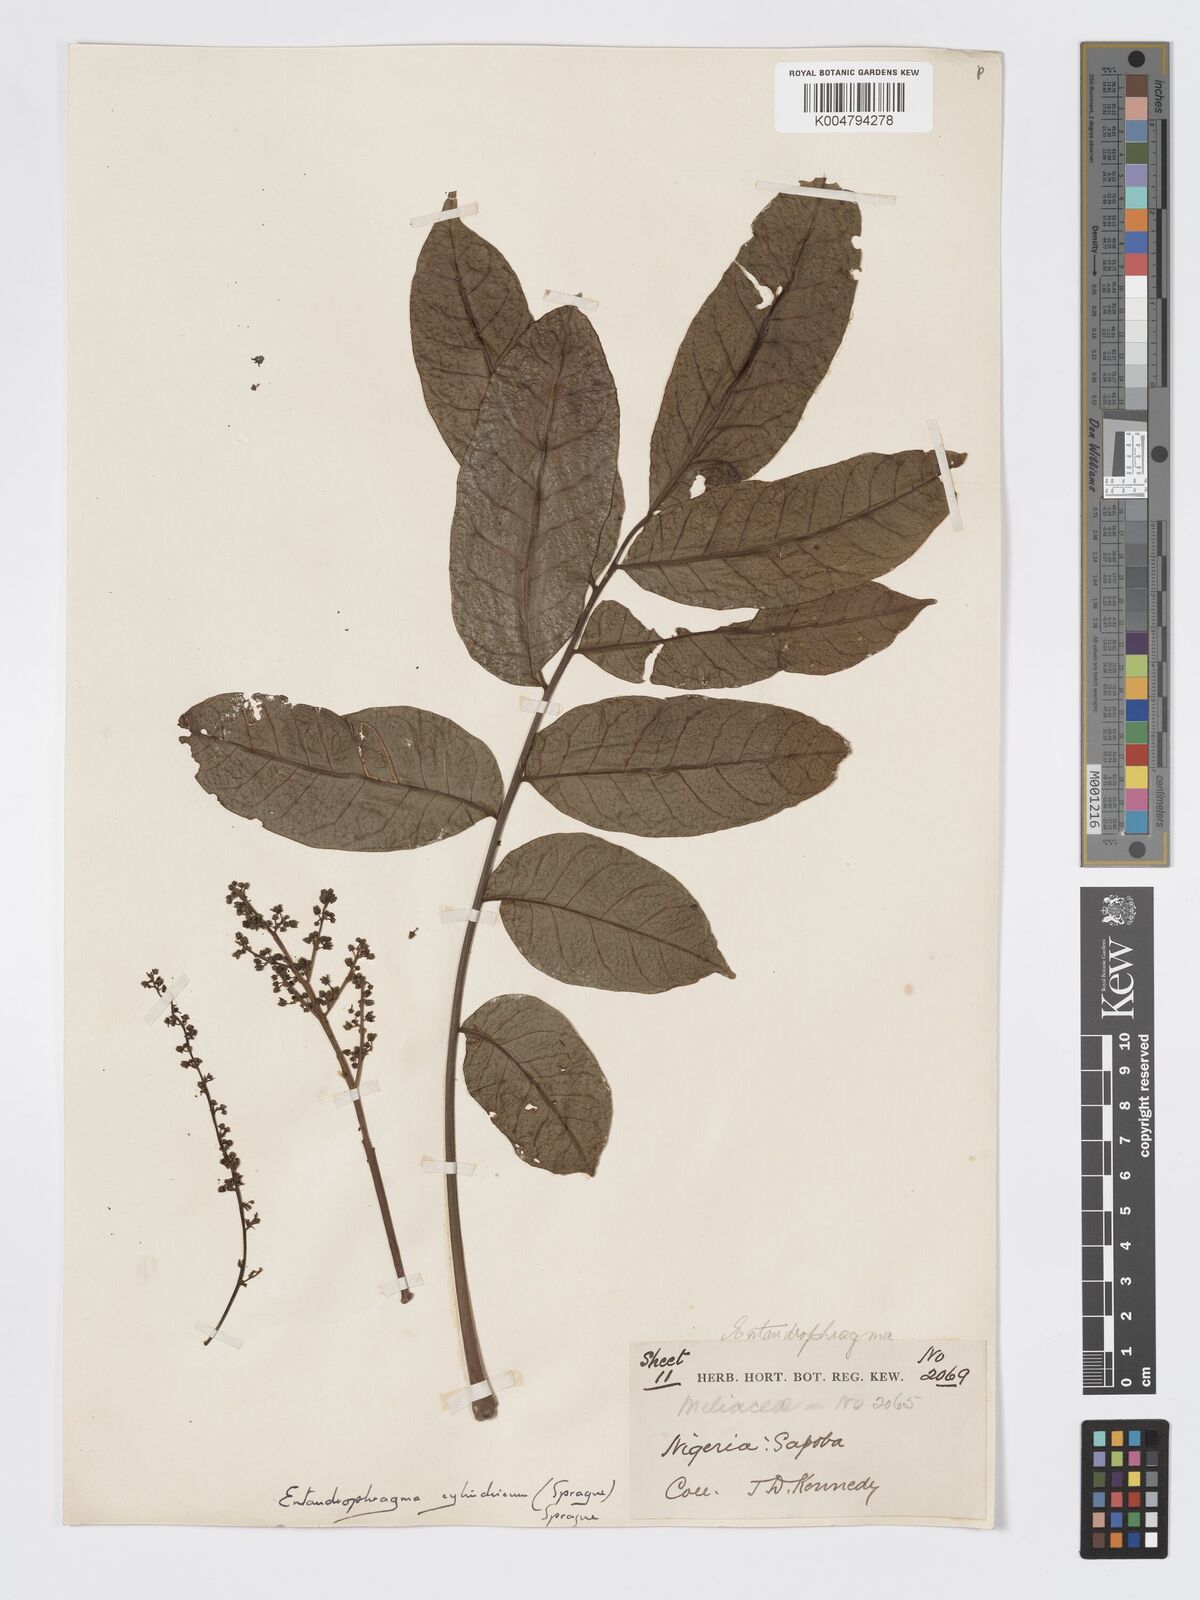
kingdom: Plantae
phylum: Tracheophyta
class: Magnoliopsida
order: Sapindales
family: Meliaceae
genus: Entandrophragma
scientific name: Entandrophragma cylindricum
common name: Sapele
